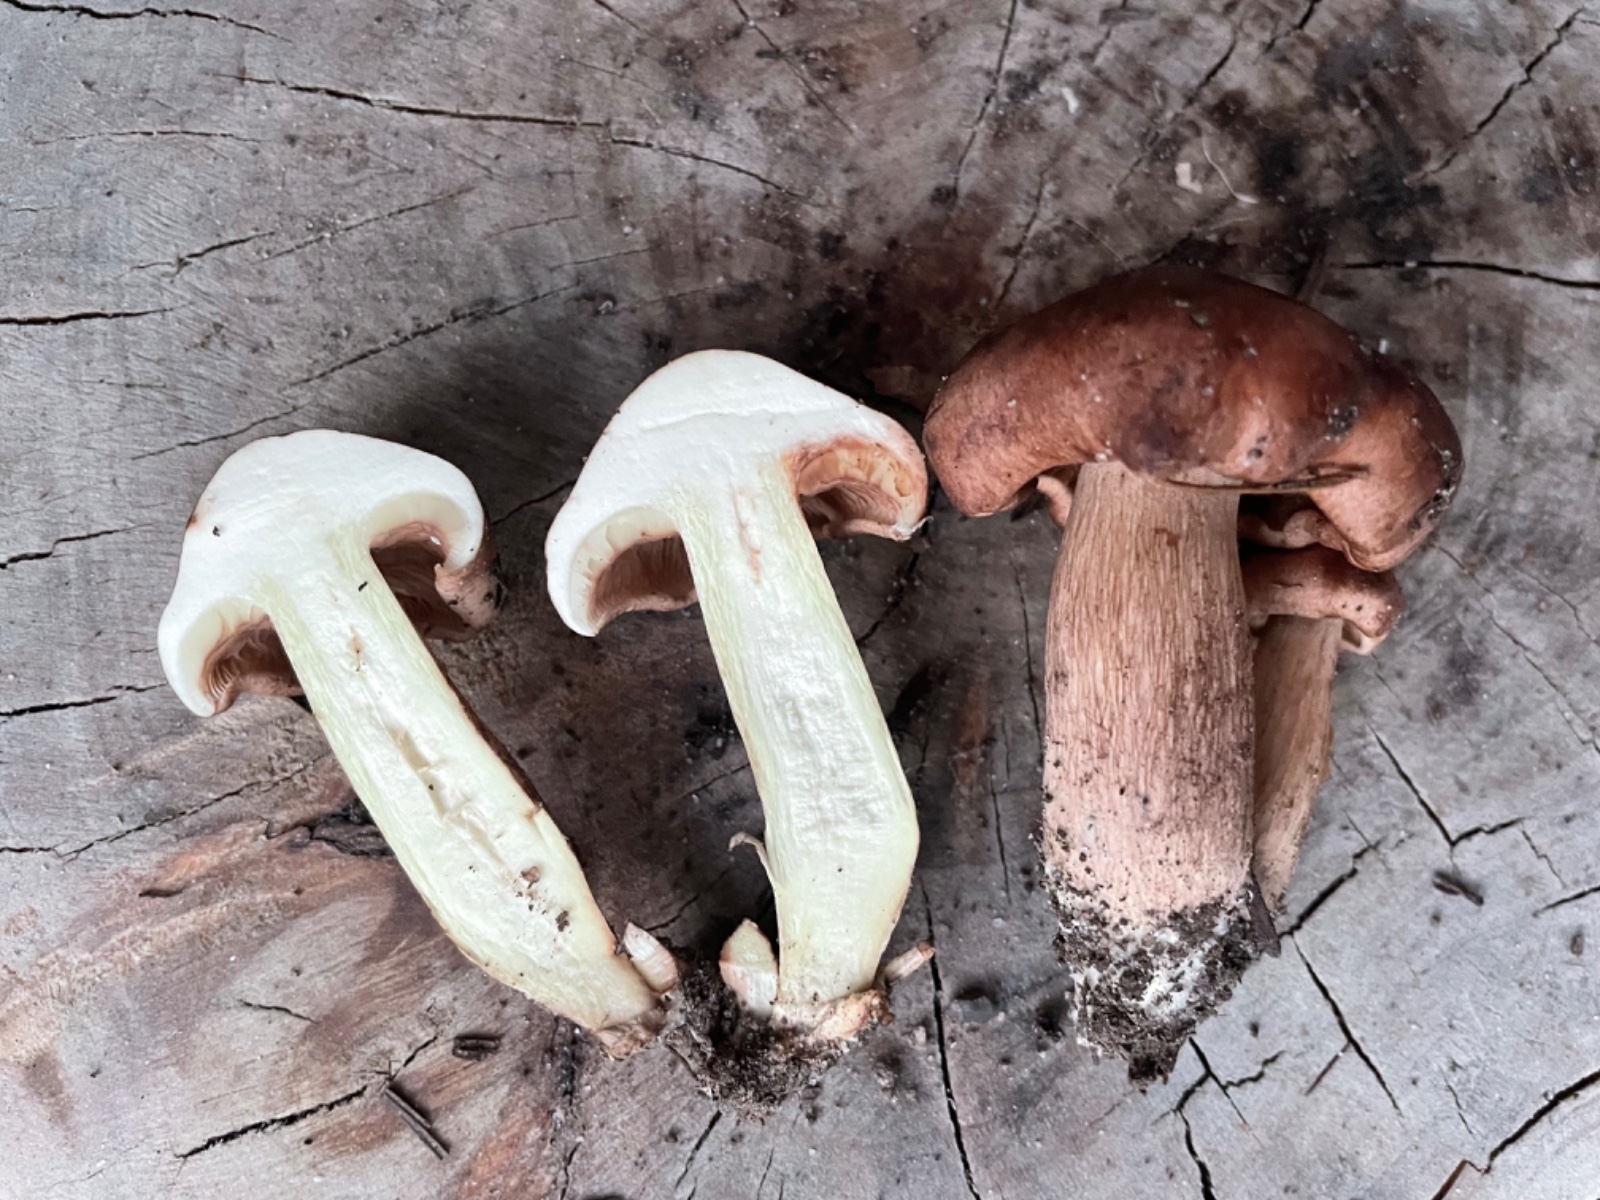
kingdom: Fungi
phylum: Basidiomycota
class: Agaricomycetes
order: Agaricales
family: Tricholomataceae
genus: Tricholoma
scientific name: Tricholoma fulvum
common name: birke-ridderhat
